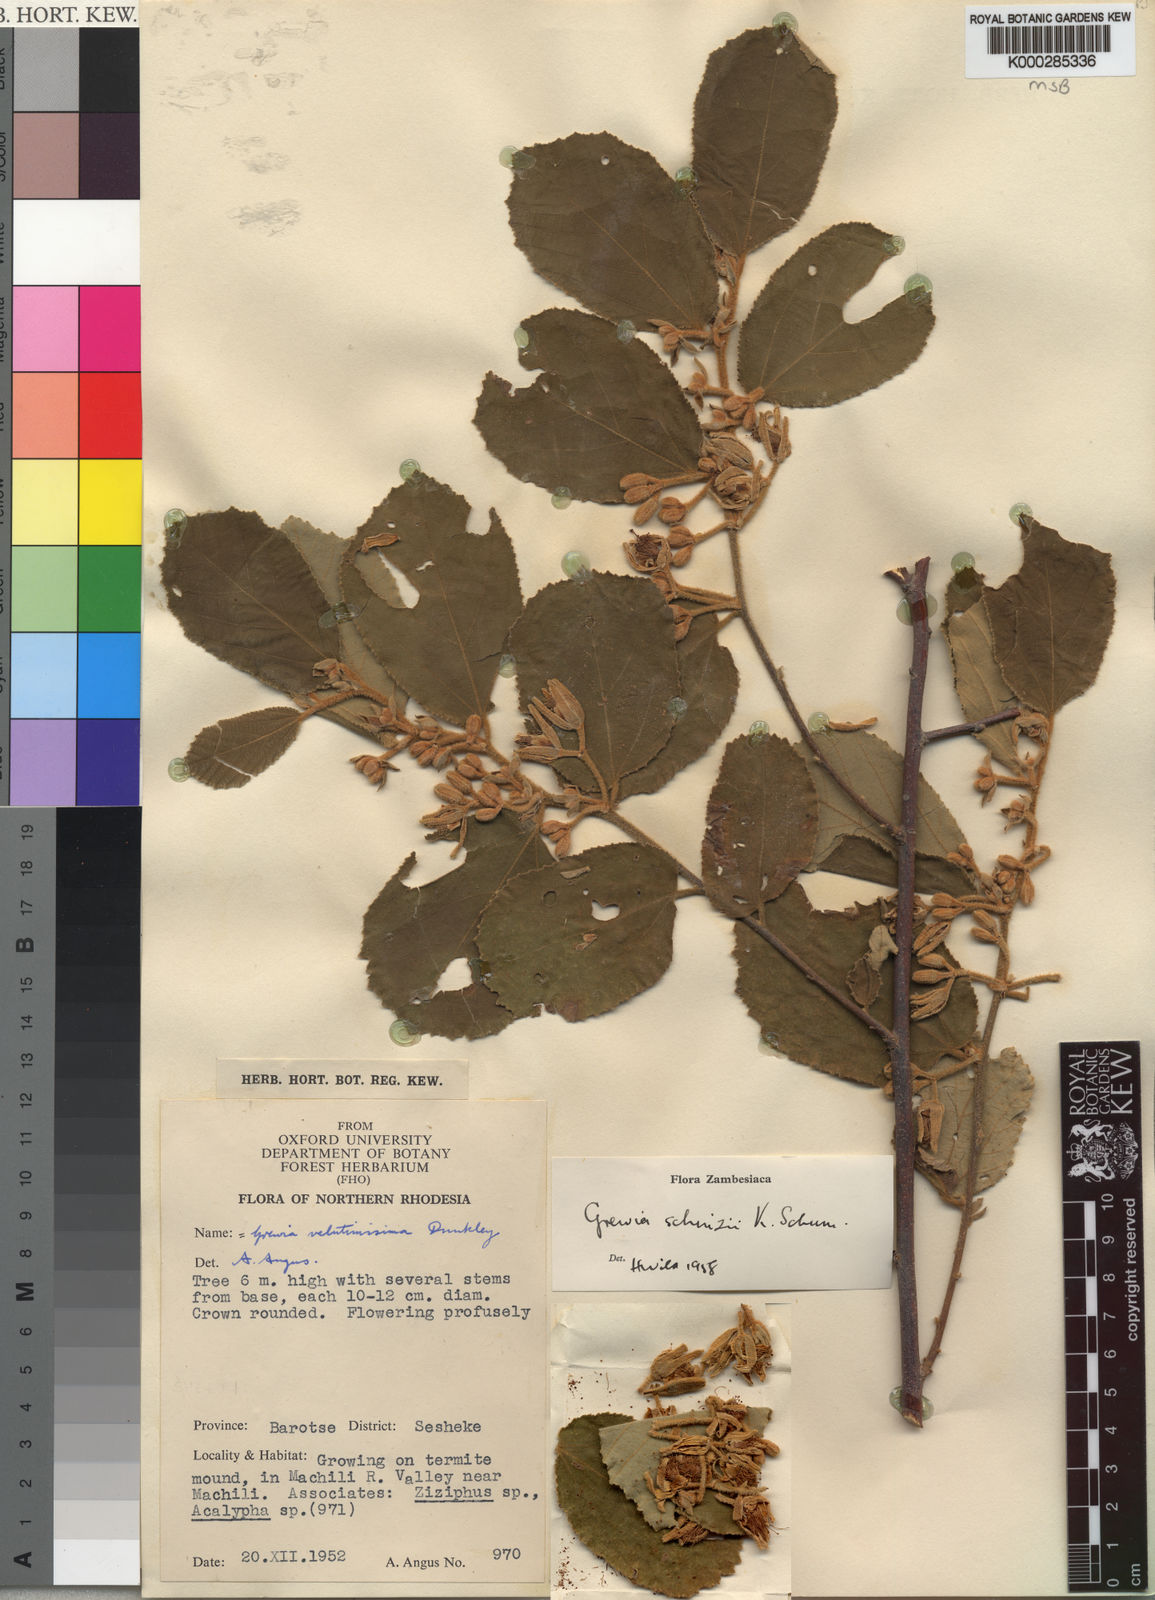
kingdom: Plantae
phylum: Tracheophyta
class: Magnoliopsida
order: Malvales
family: Malvaceae
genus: Grewia
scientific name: Grewia schinzii
